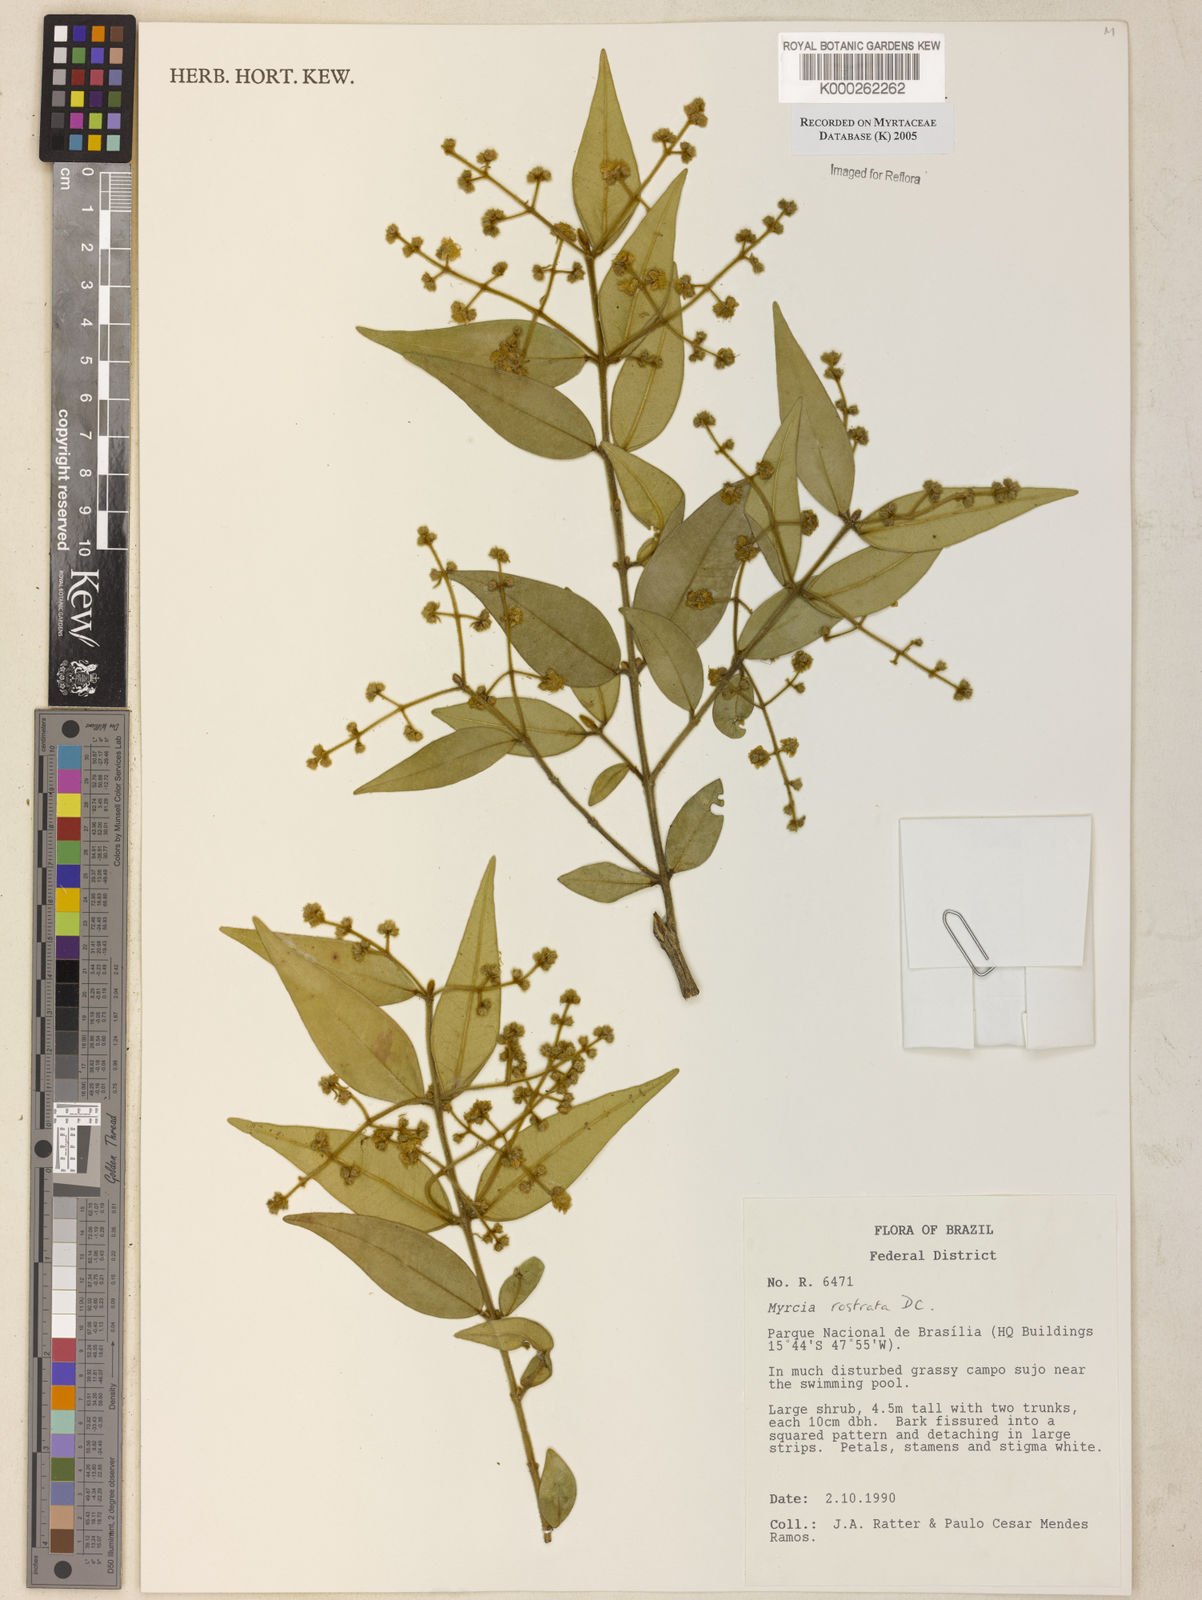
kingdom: Plantae
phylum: Tracheophyta
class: Magnoliopsida
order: Myrtales
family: Myrtaceae
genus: Myrcia
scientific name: Myrcia splendens
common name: Surinam cherry
